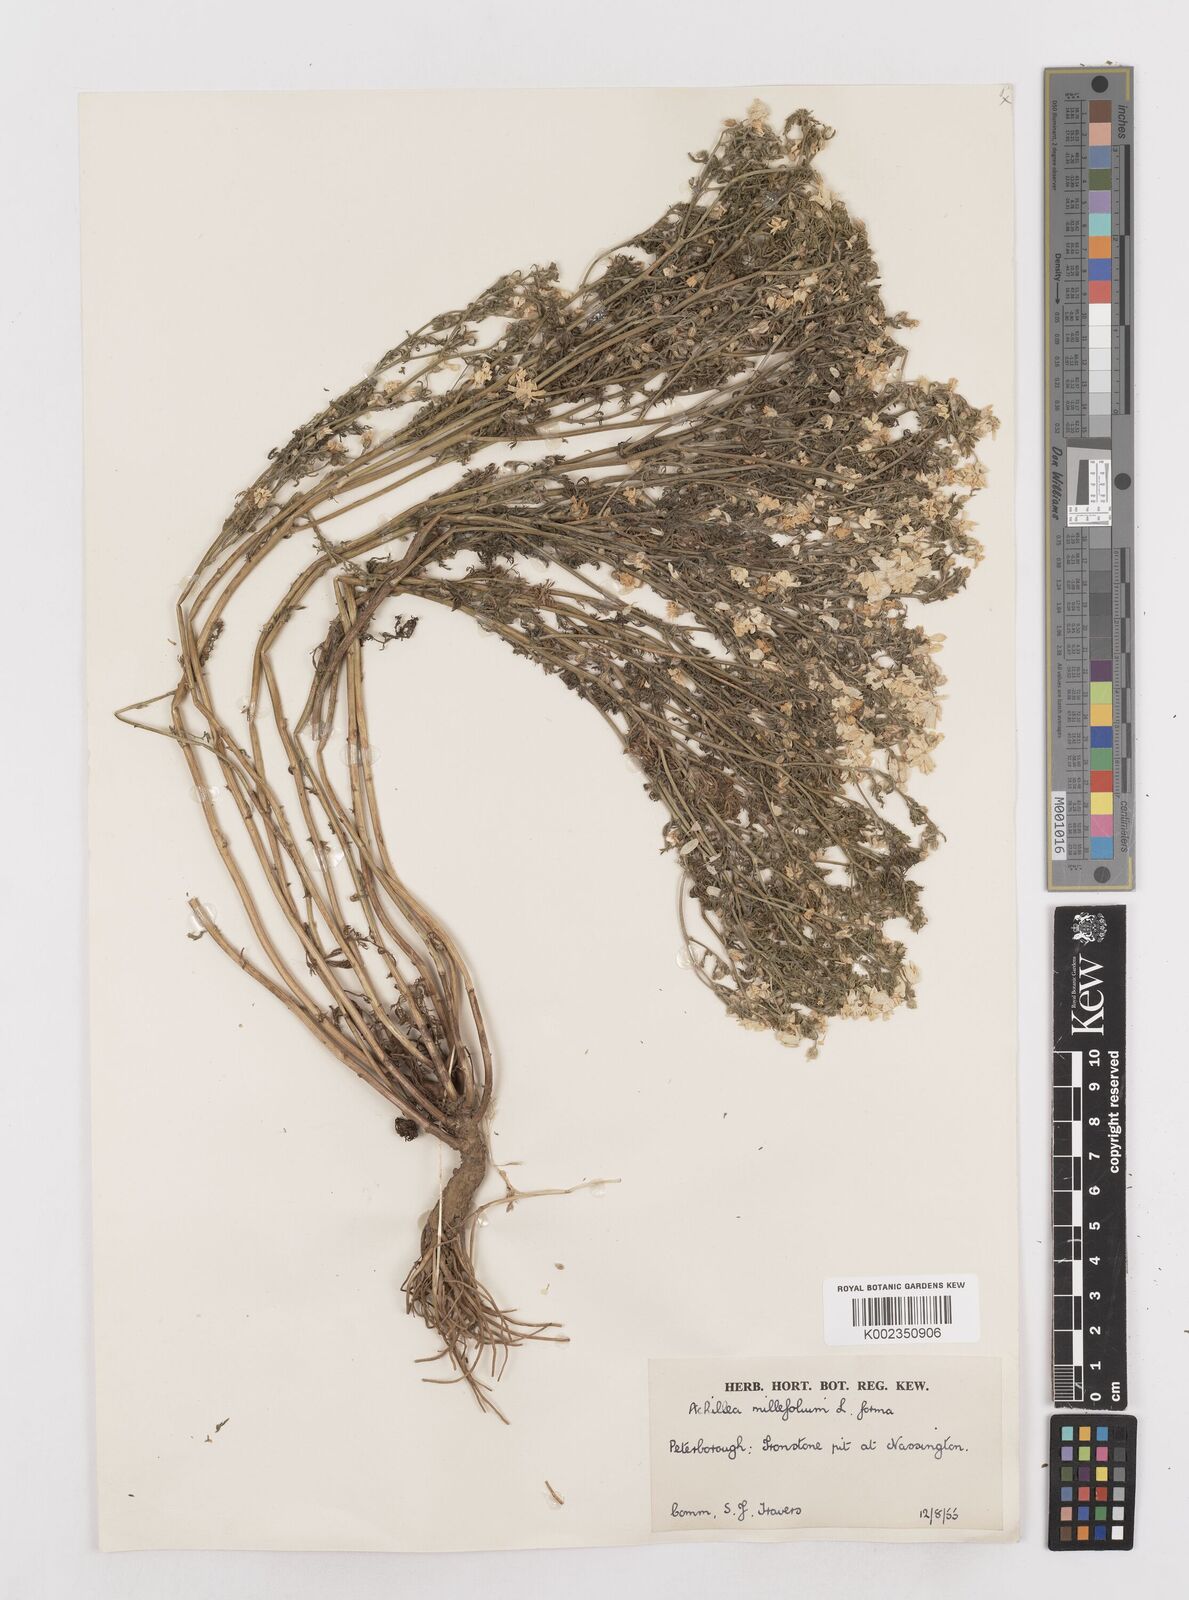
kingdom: Plantae
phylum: Tracheophyta
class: Magnoliopsida
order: Asterales
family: Asteraceae
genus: Achillea
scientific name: Achillea millefolium
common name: Yarrow
